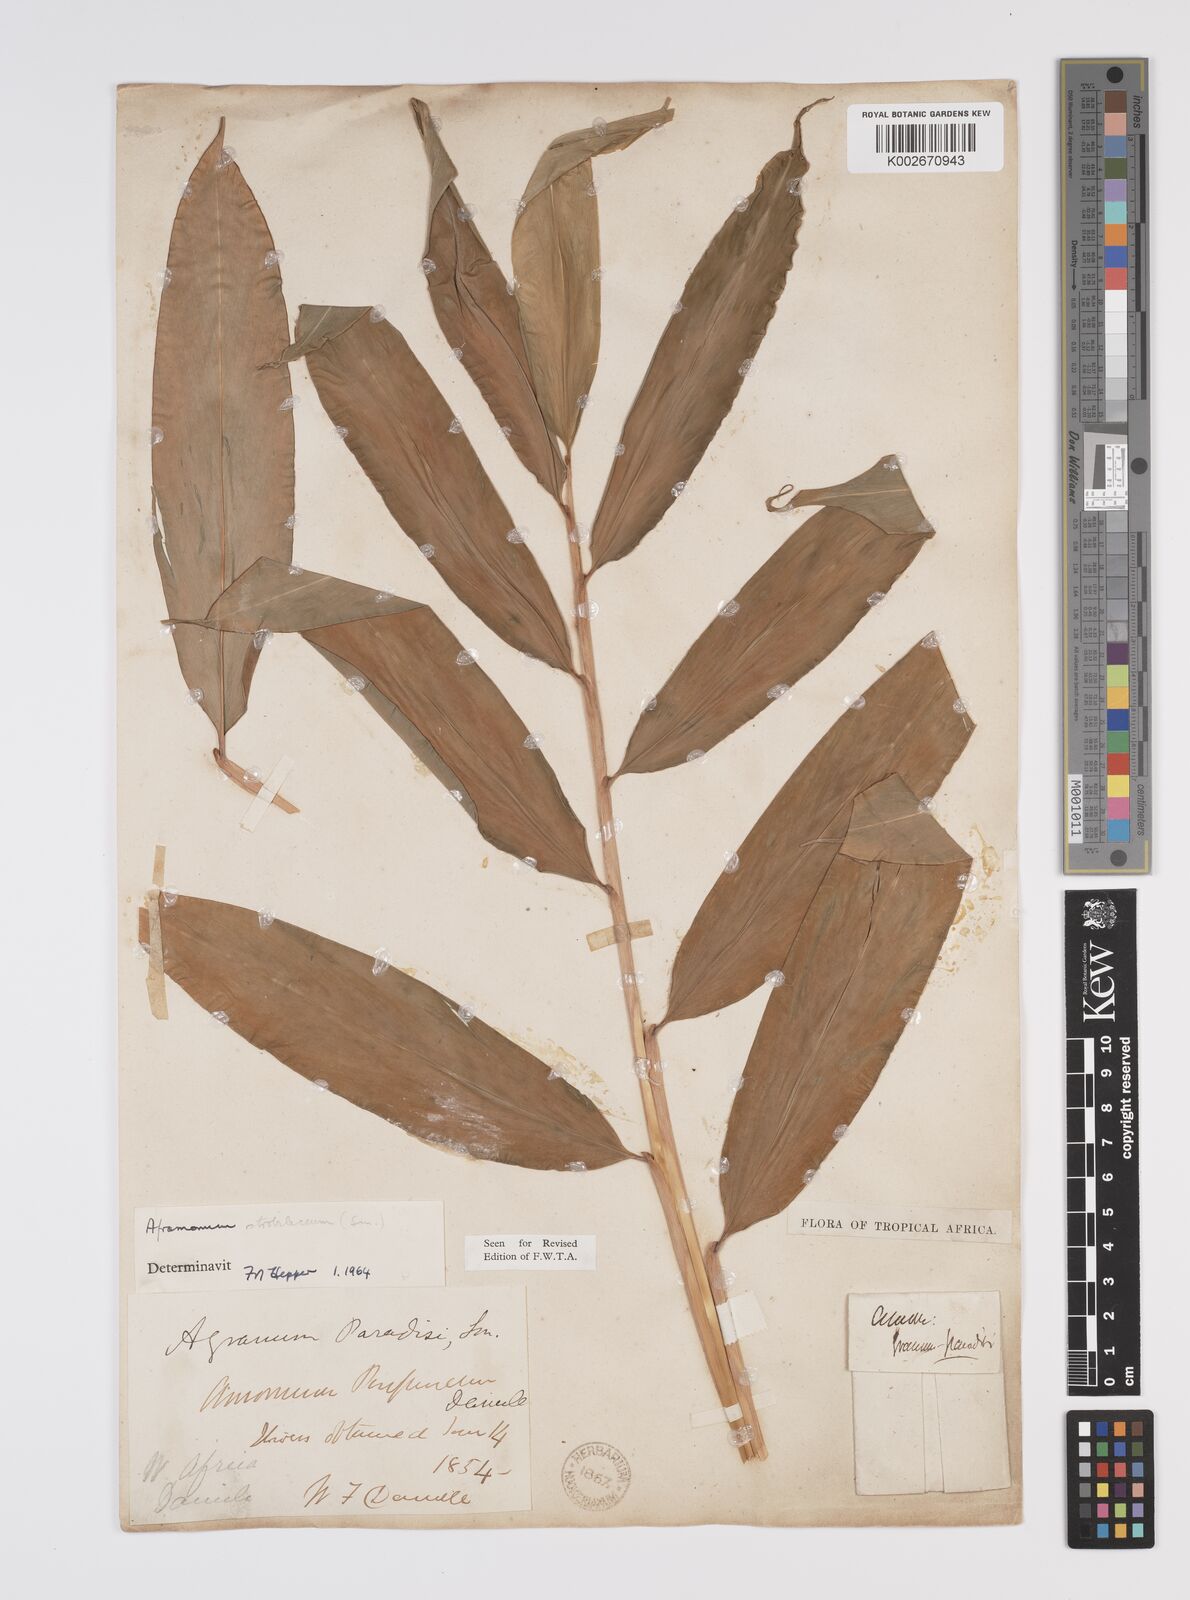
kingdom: Plantae
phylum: Tracheophyta
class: Liliopsida
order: Zingiberales
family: Zingiberaceae
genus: Aframomum
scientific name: Aframomum strobilaceum
